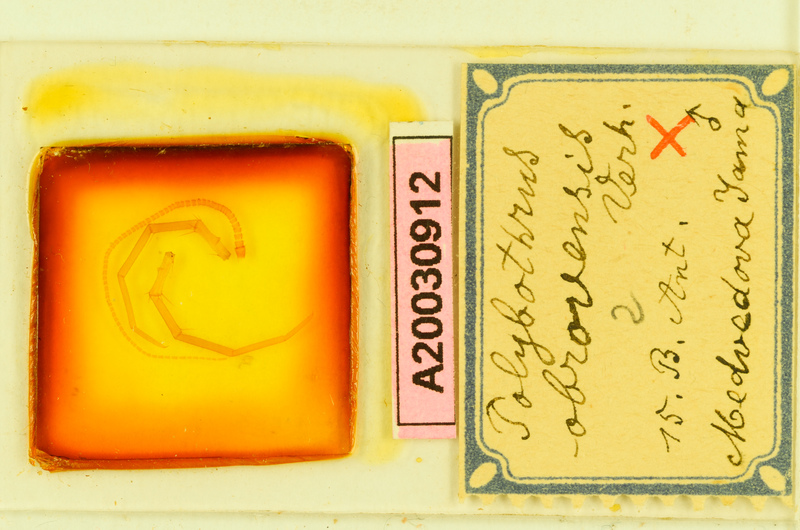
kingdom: Animalia
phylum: Arthropoda
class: Chilopoda
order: Lithobiomorpha
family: Lithobiidae
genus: Polybothrus
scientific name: Polybothrus obrovensis
